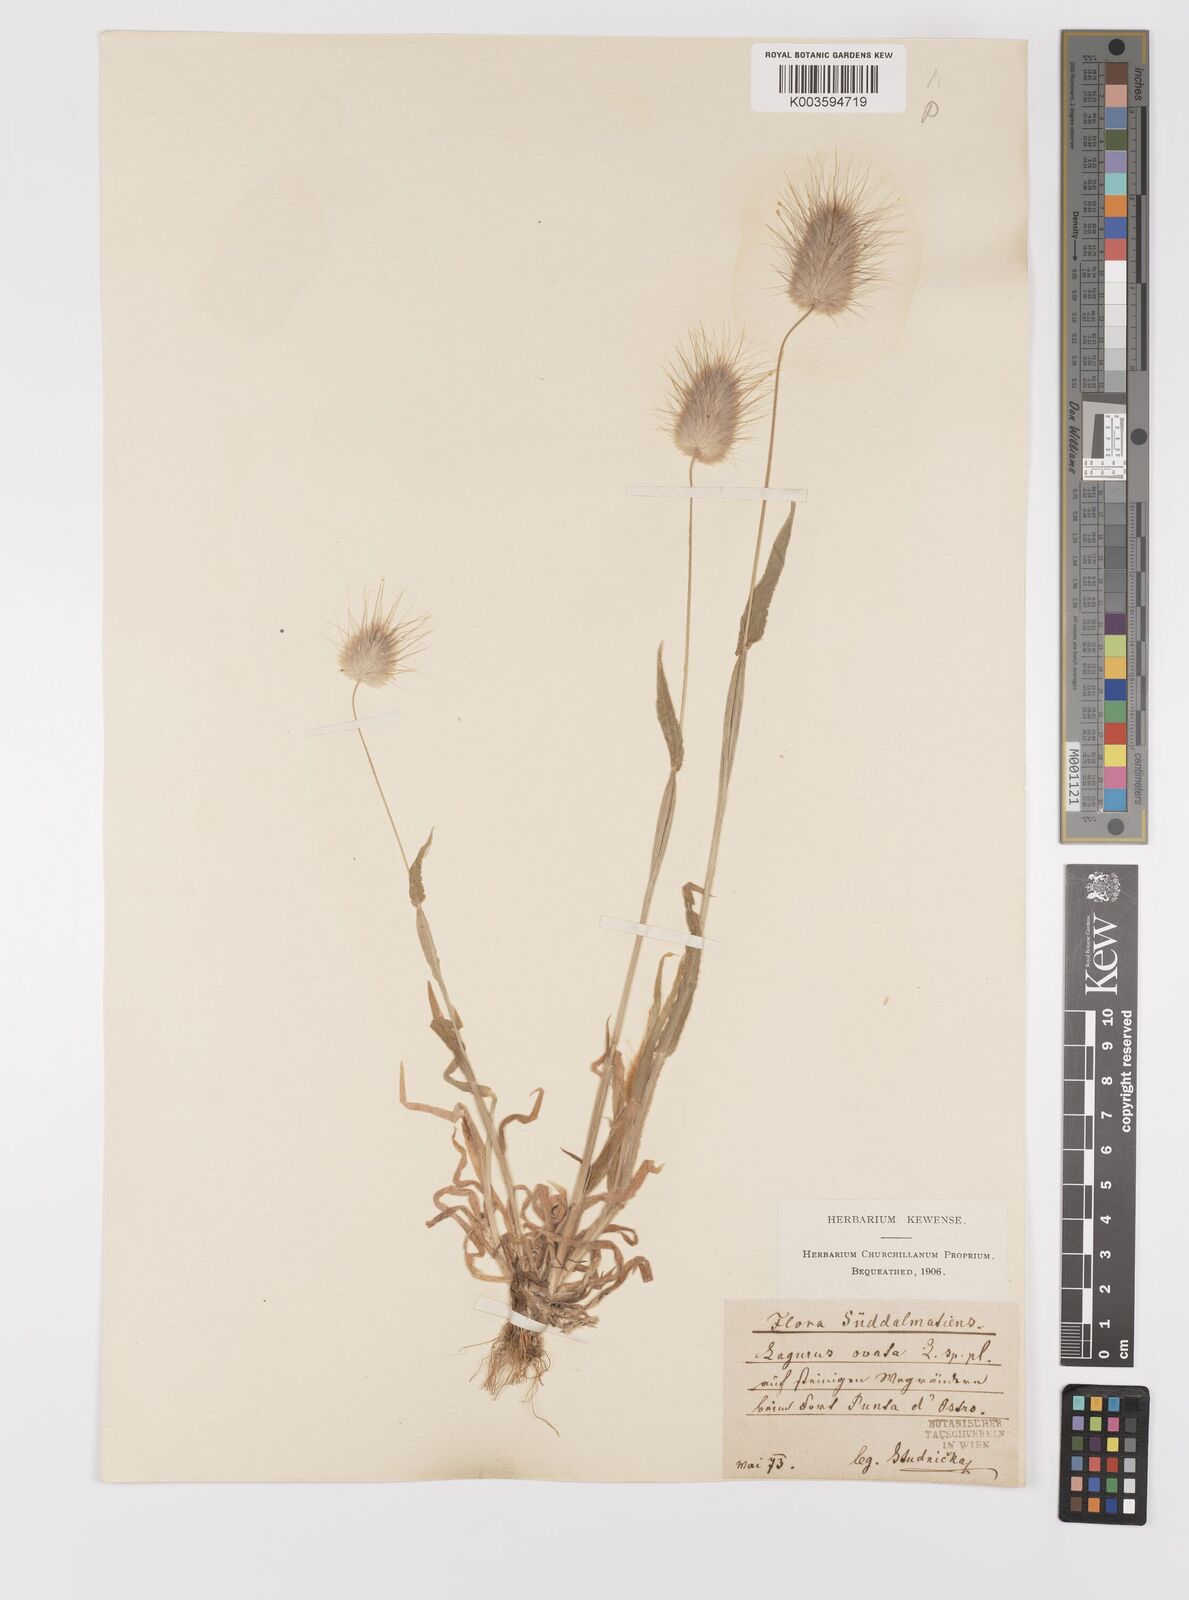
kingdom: Plantae
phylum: Tracheophyta
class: Liliopsida
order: Poales
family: Poaceae
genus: Lagurus
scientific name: Lagurus ovatus
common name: Hare's-tail
